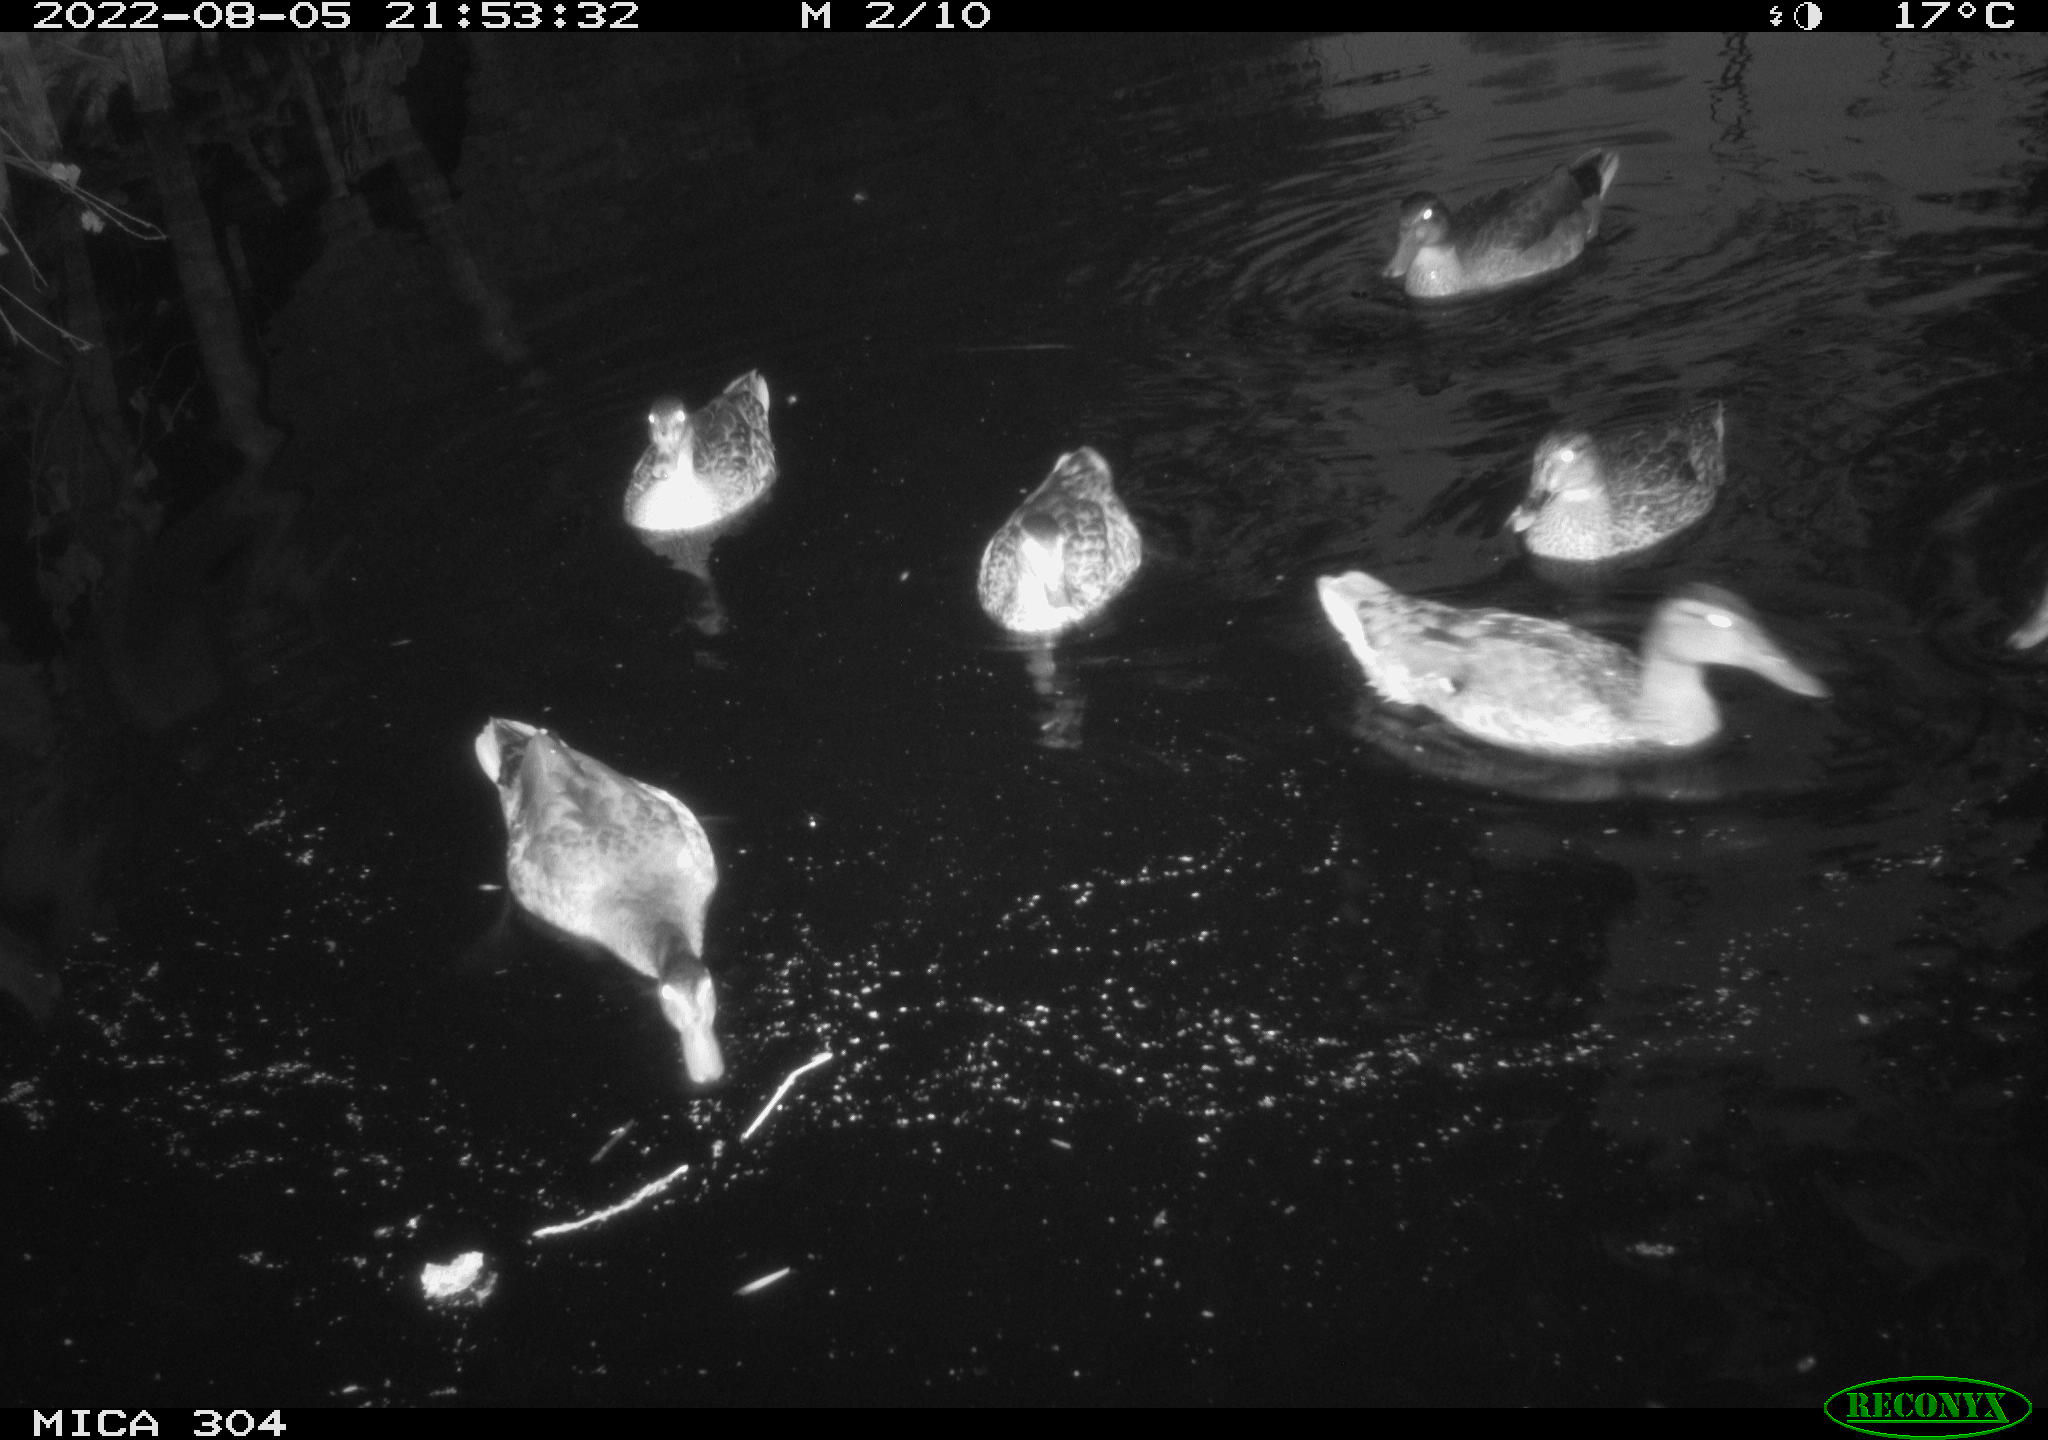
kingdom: Animalia
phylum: Chordata
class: Aves
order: Anseriformes
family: Anatidae
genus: Anas
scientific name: Anas platyrhynchos
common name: Mallard
